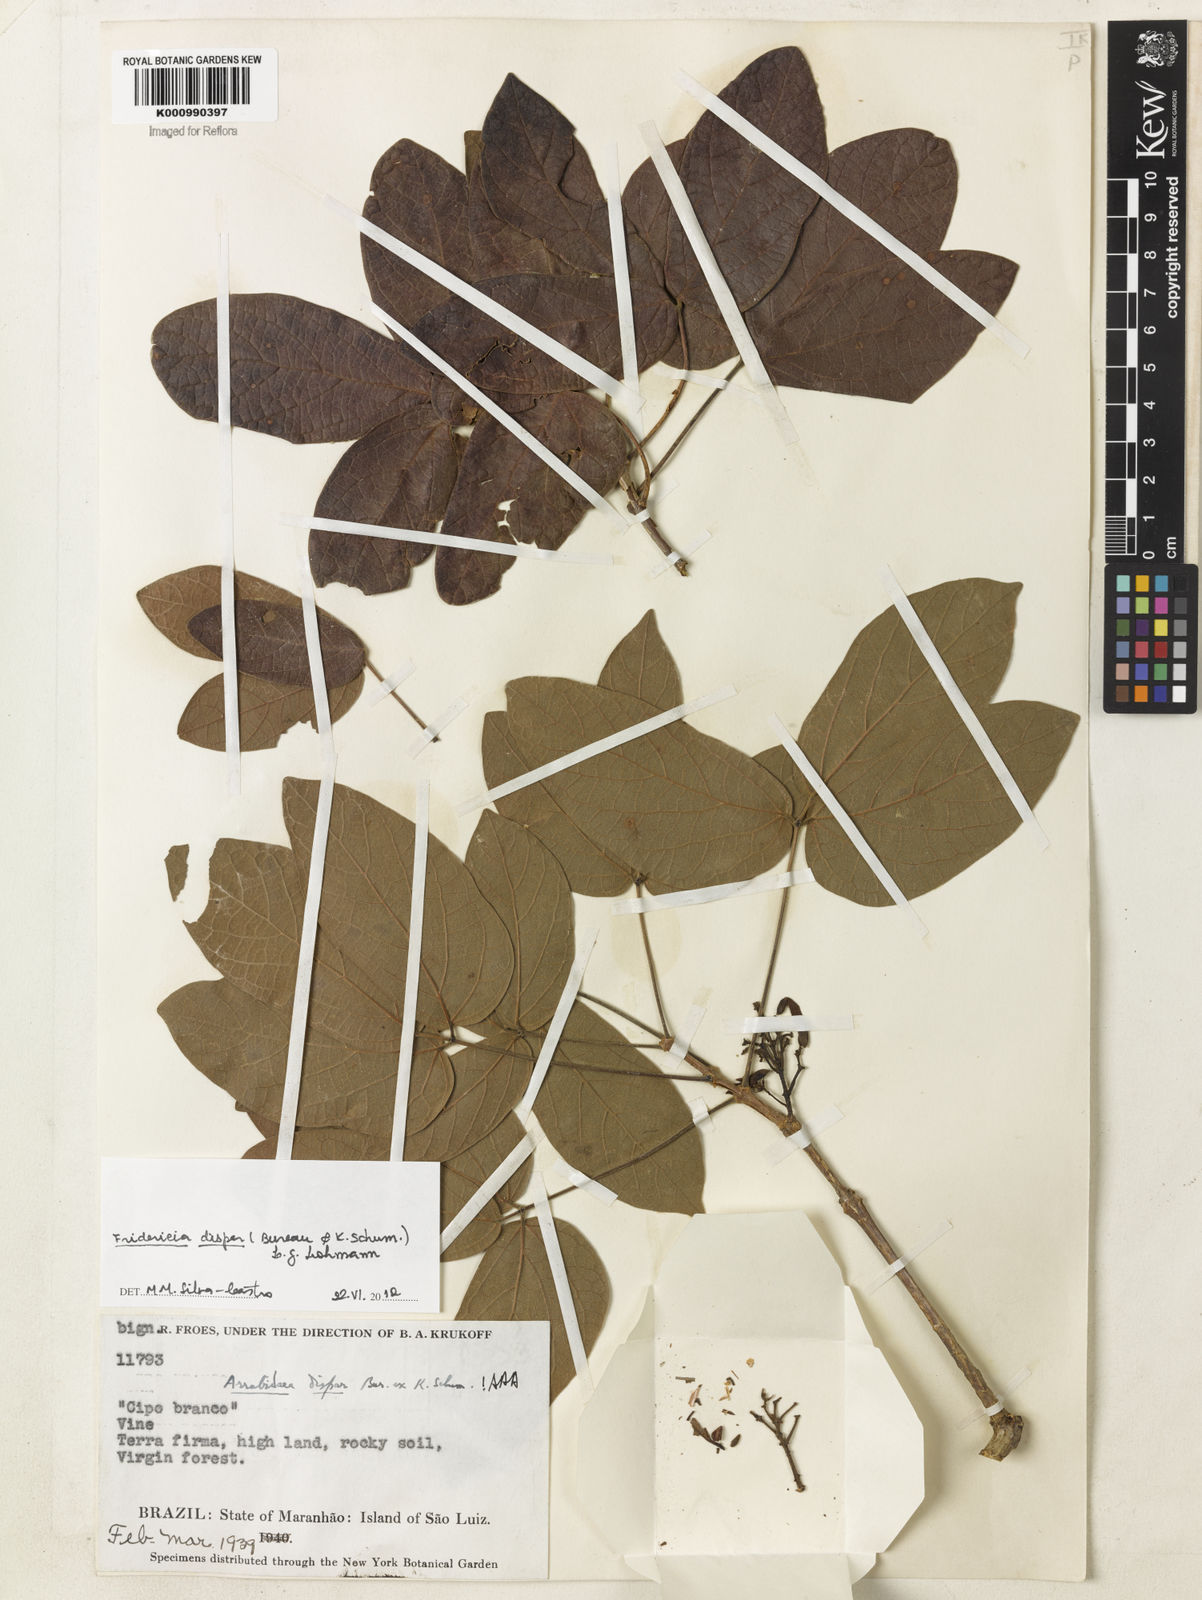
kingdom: Plantae
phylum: Tracheophyta
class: Magnoliopsida
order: Lamiales
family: Bignoniaceae
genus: Fridericia
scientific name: Fridericia dispar
